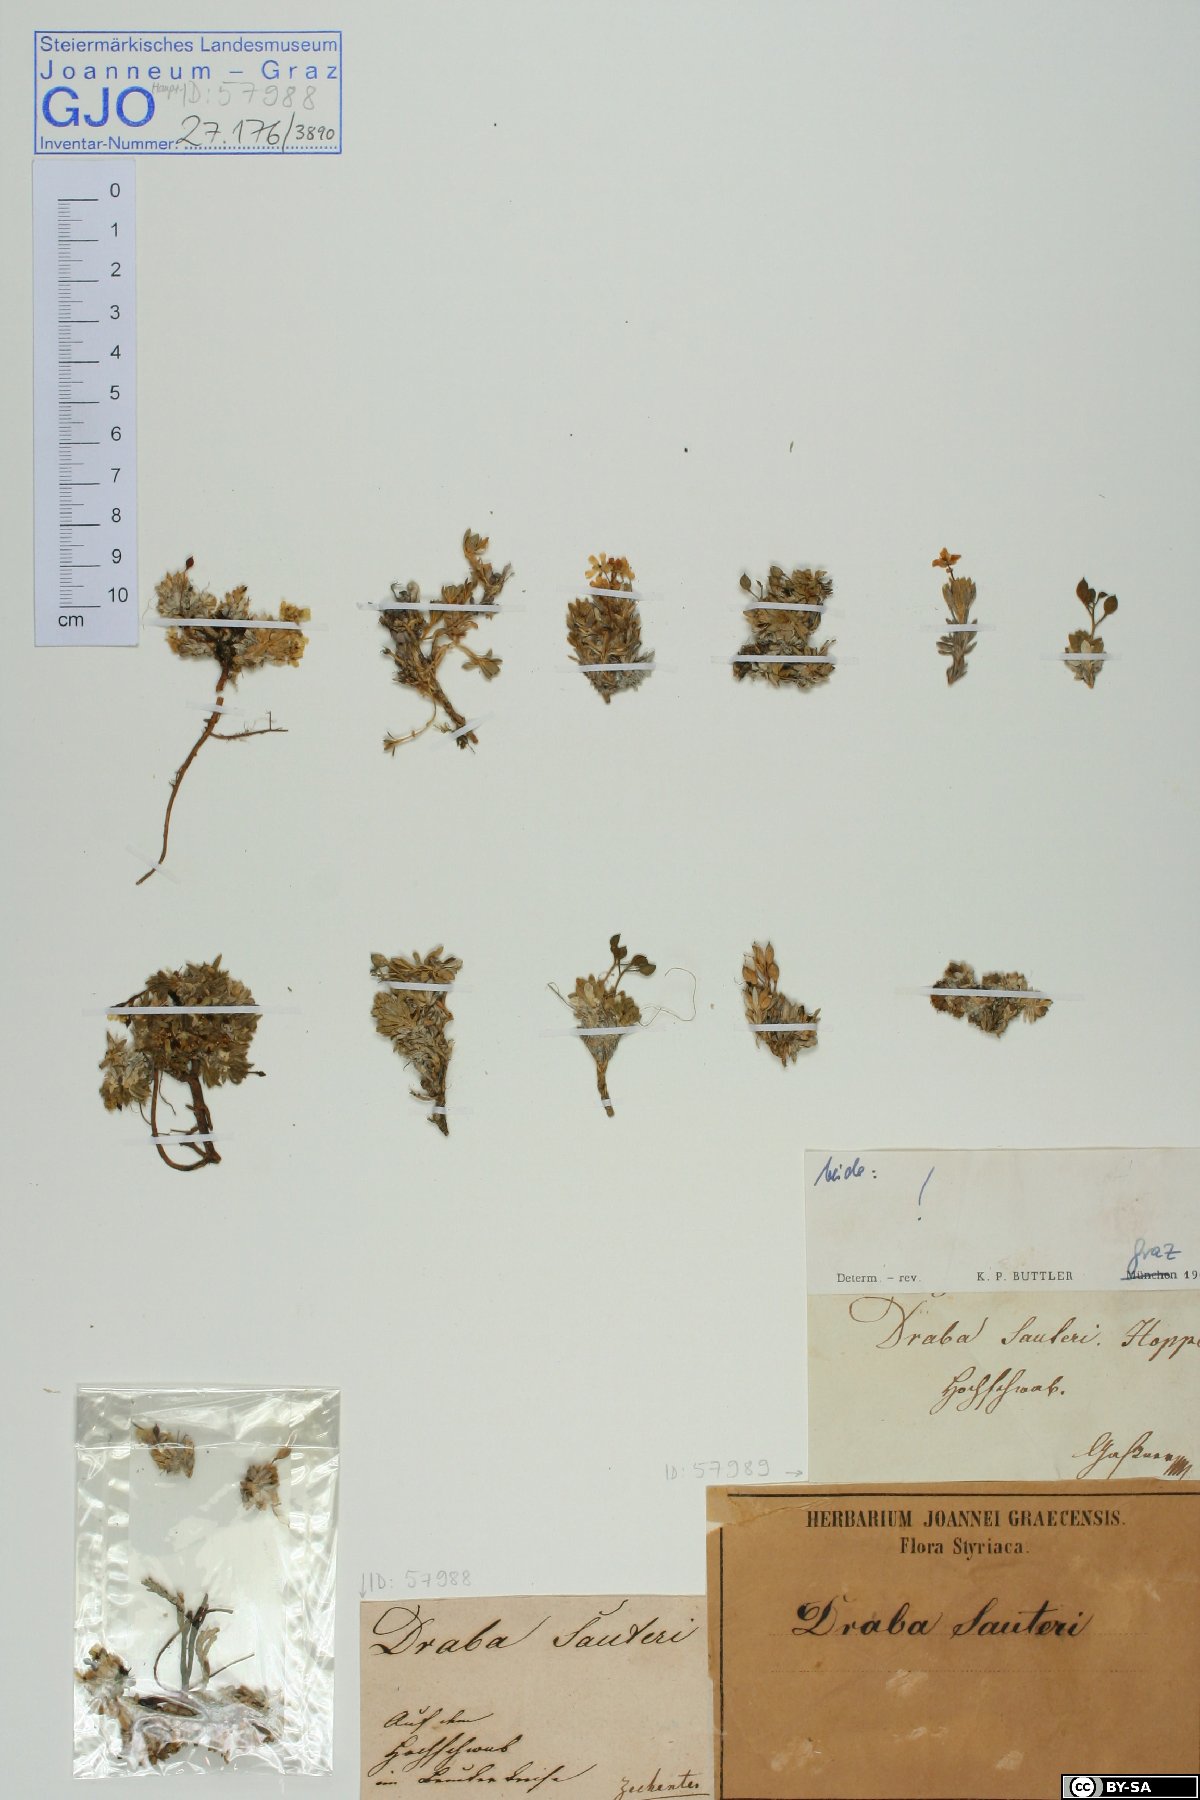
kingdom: Plantae
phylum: Tracheophyta
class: Magnoliopsida
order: Brassicales
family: Brassicaceae
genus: Draba
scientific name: Draba sauteri
